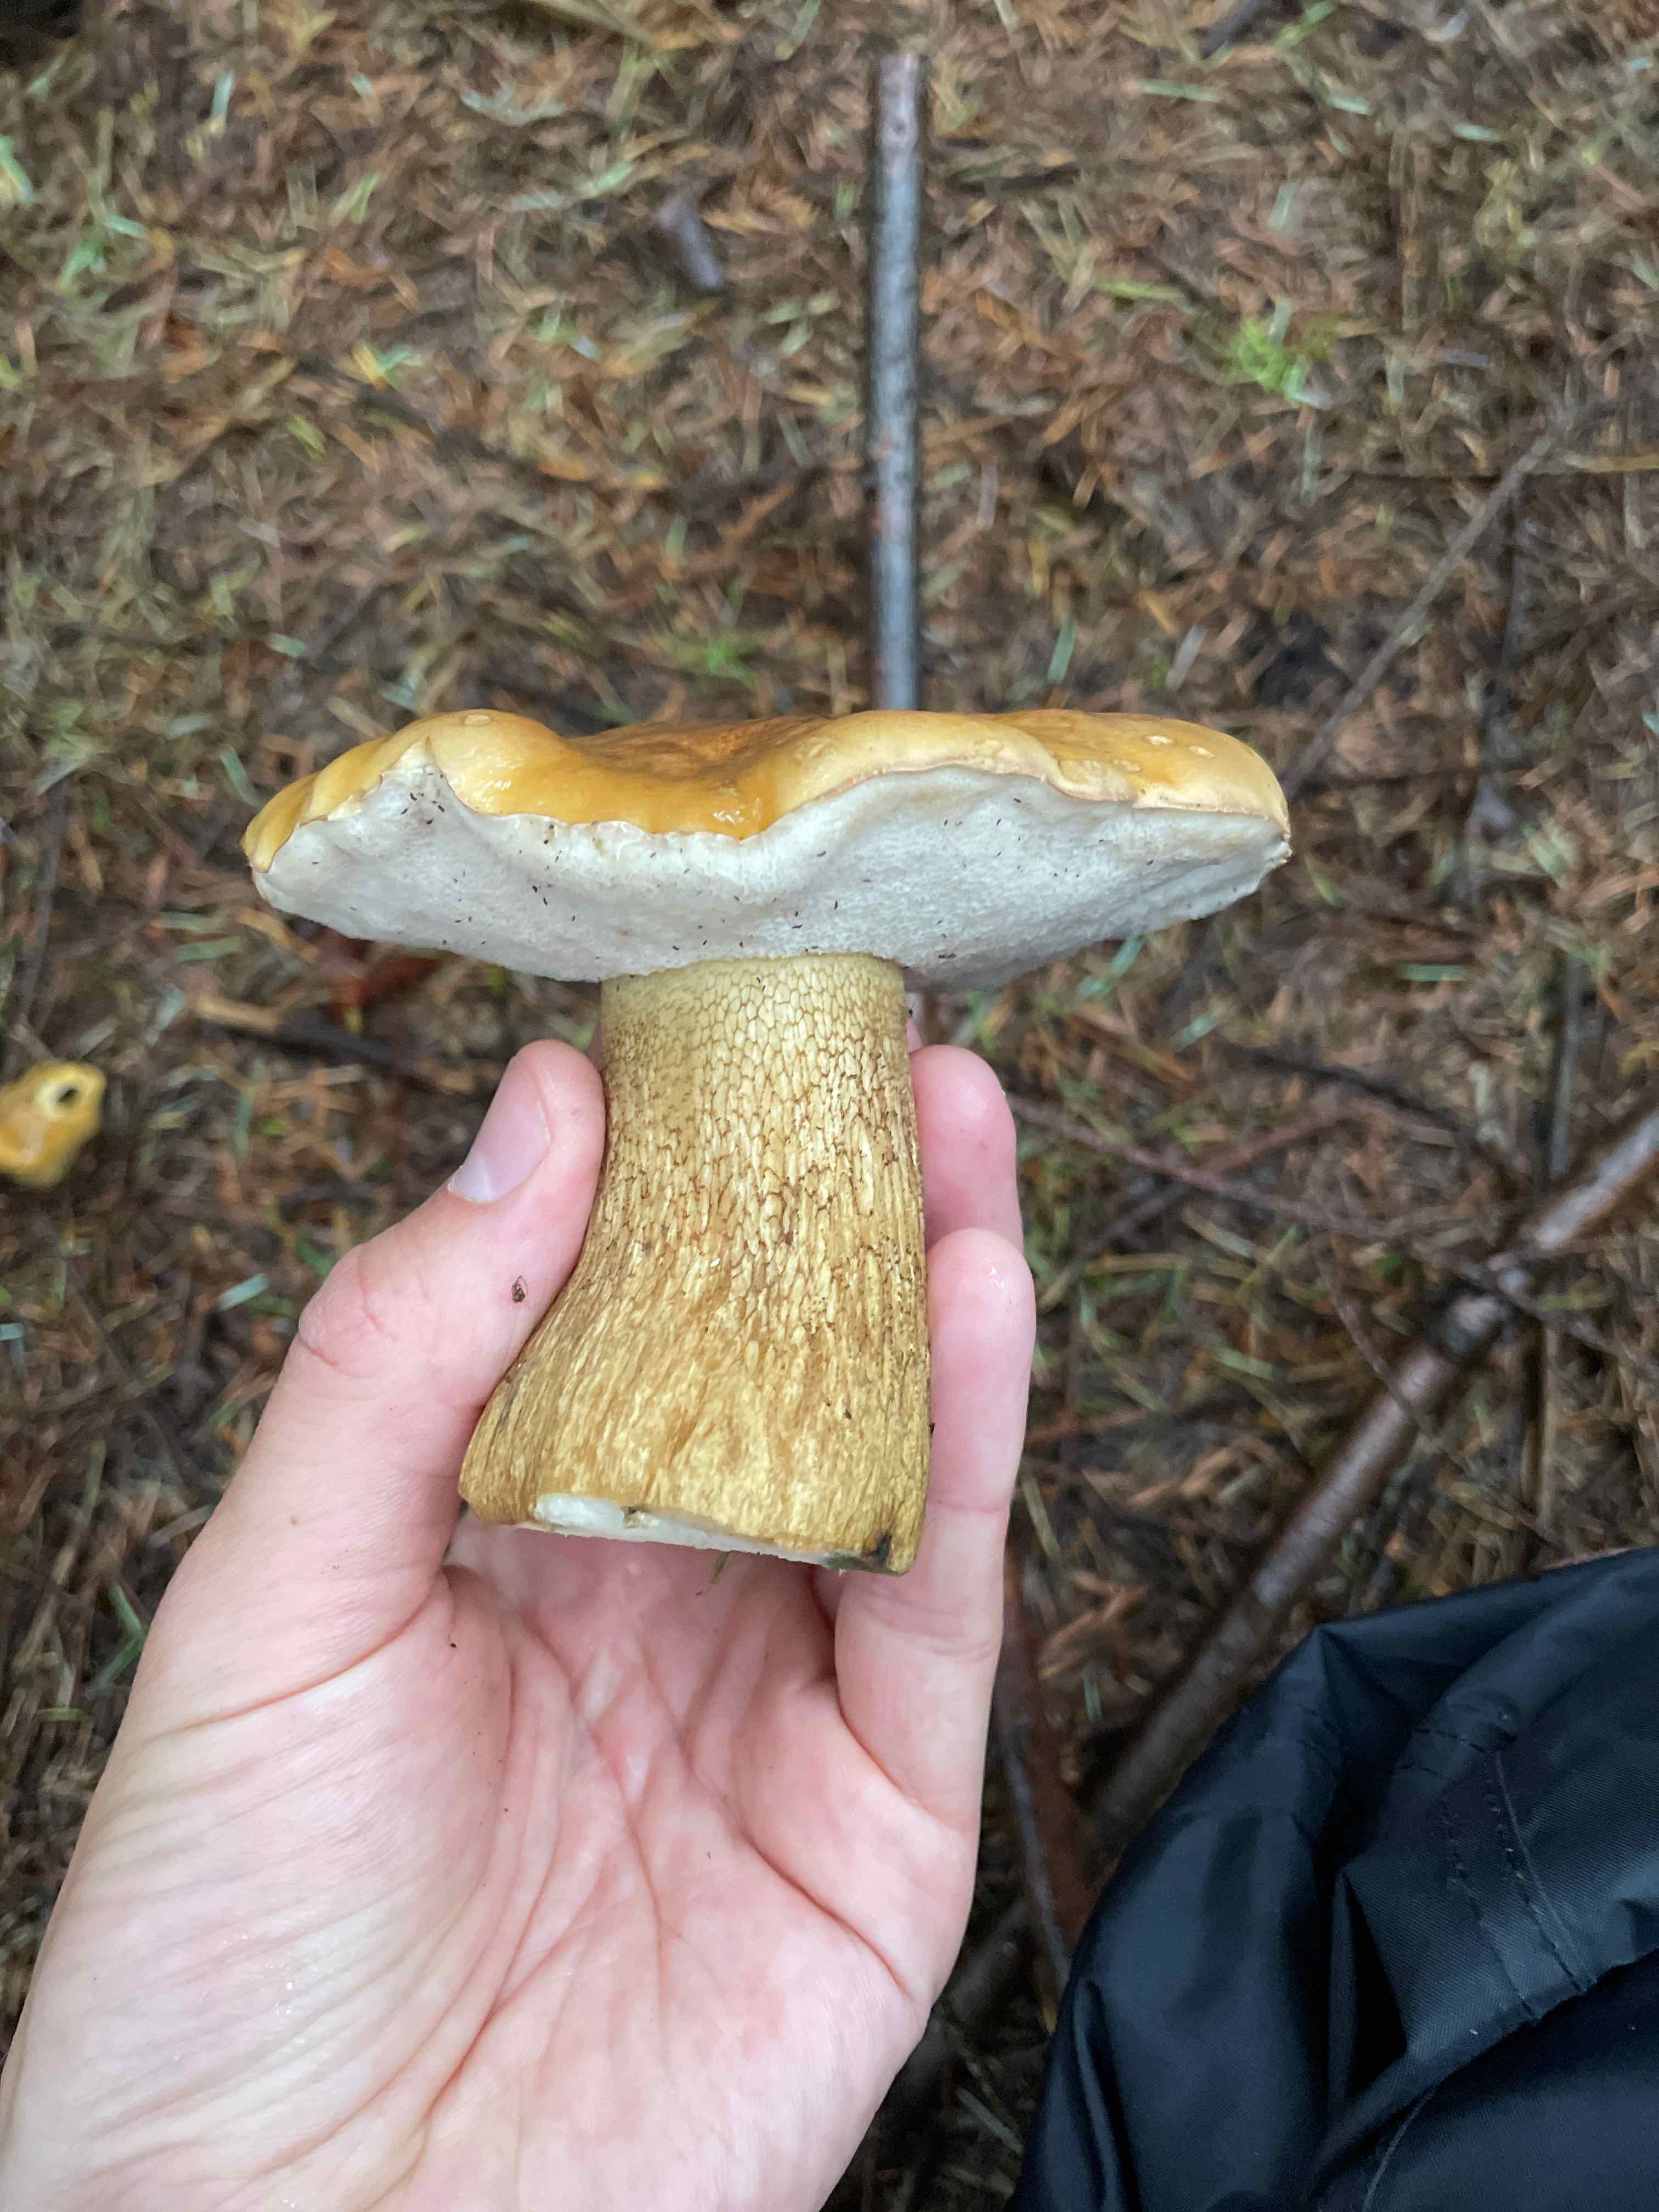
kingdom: Fungi
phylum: Basidiomycota
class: Agaricomycetes
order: Boletales
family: Boletaceae
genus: Tylopilus
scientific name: Tylopilus felleus
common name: galderørhat
